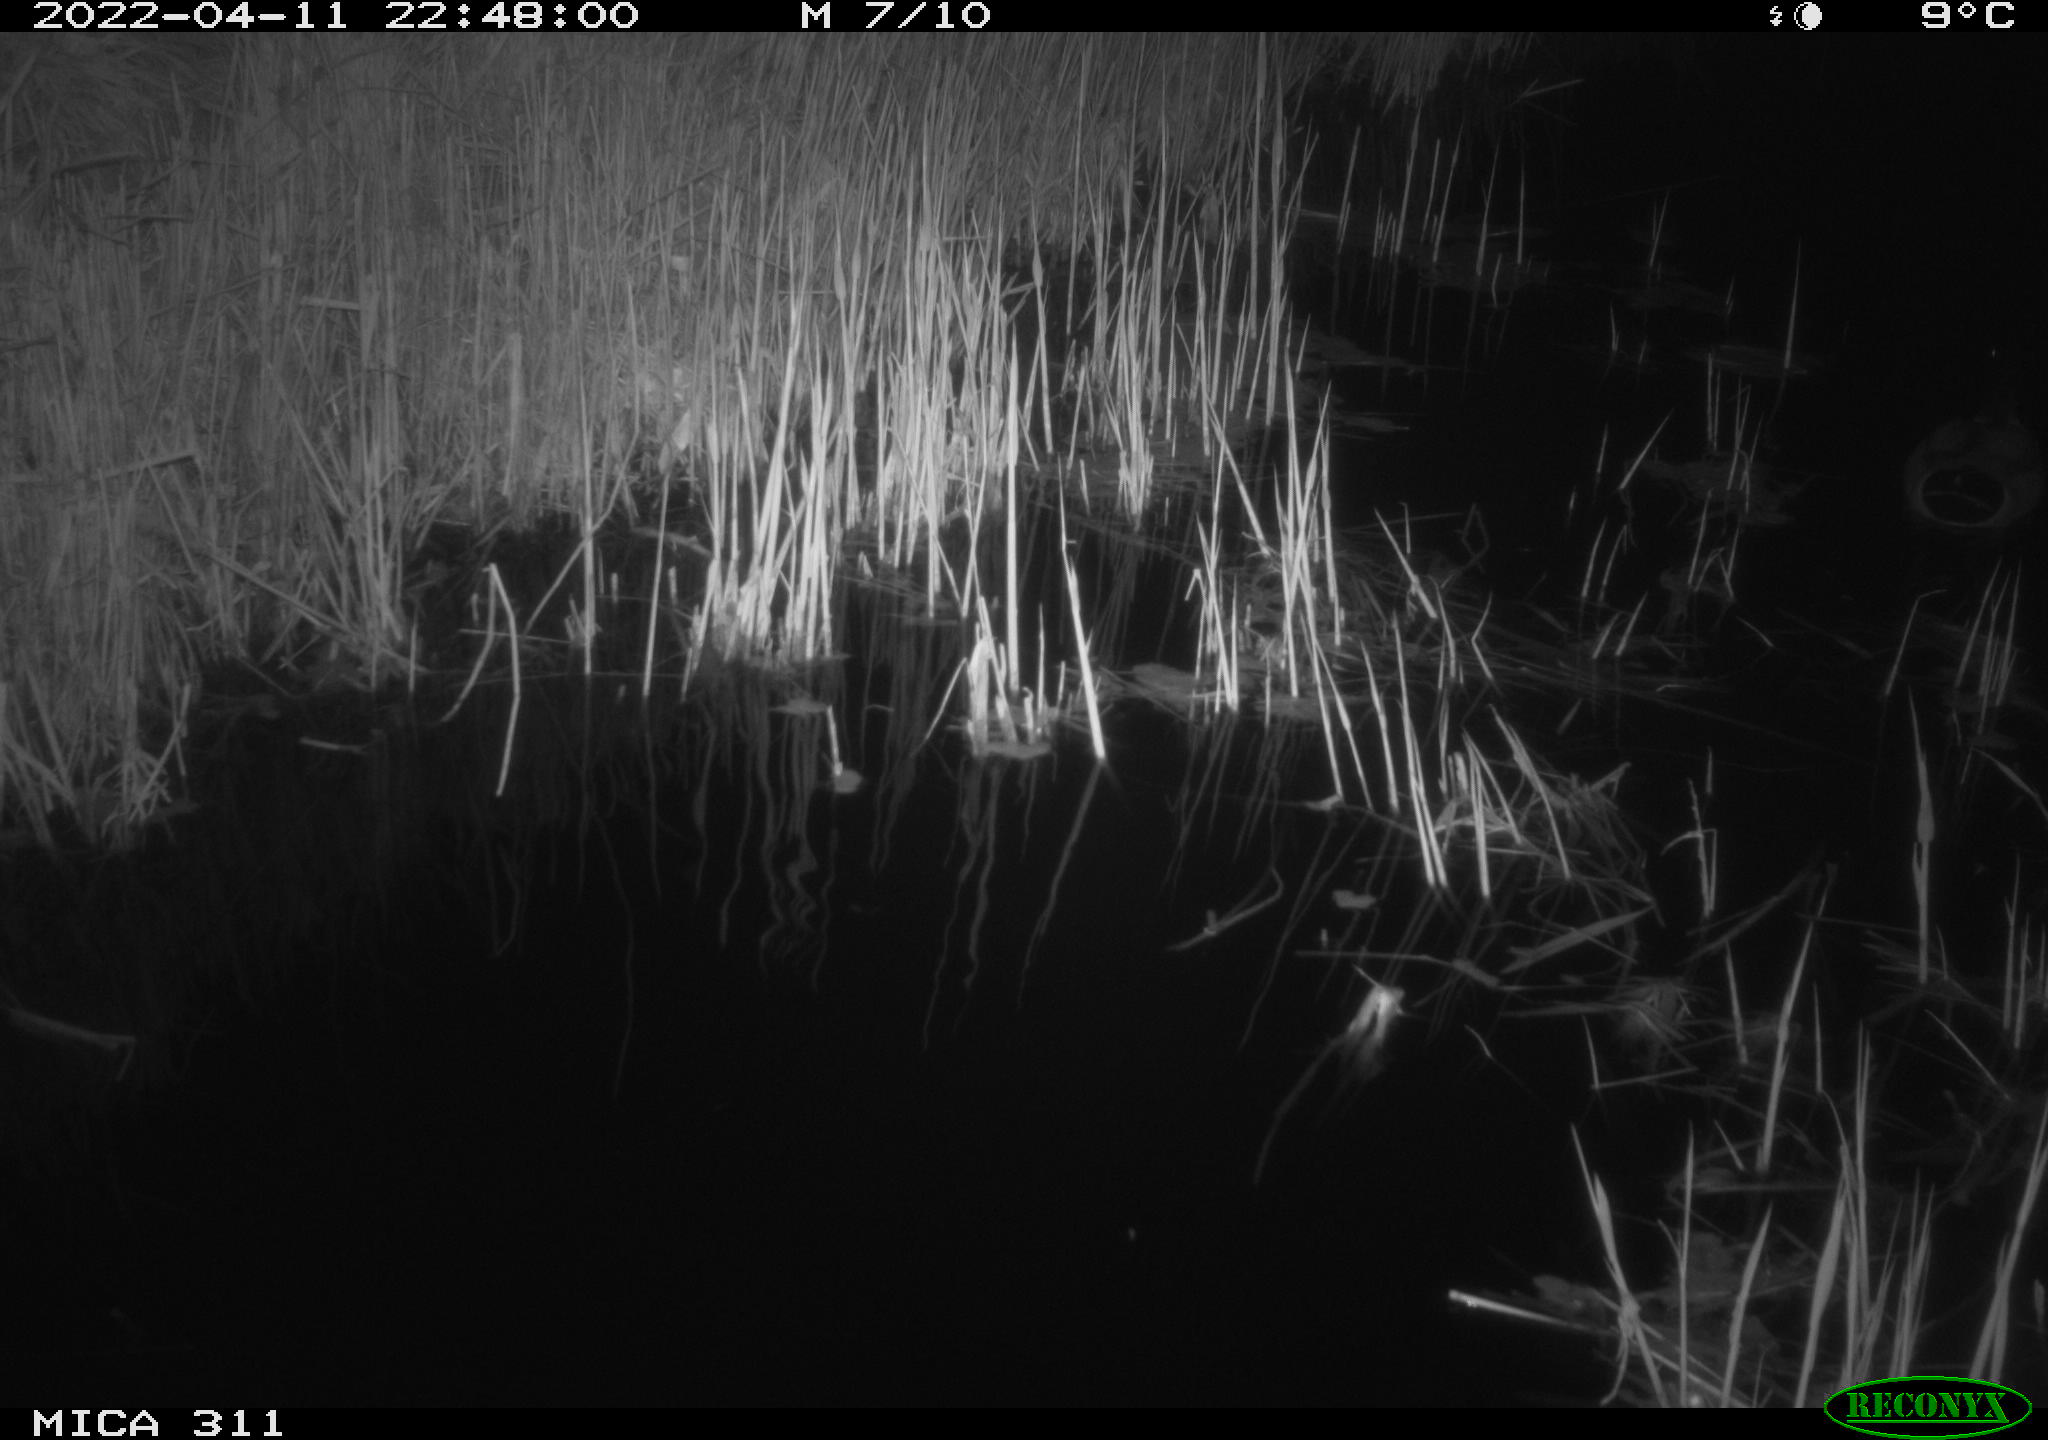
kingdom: Animalia
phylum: Chordata
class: Aves
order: Anseriformes
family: Anatidae
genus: Anas
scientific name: Anas platyrhynchos
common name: Mallard
